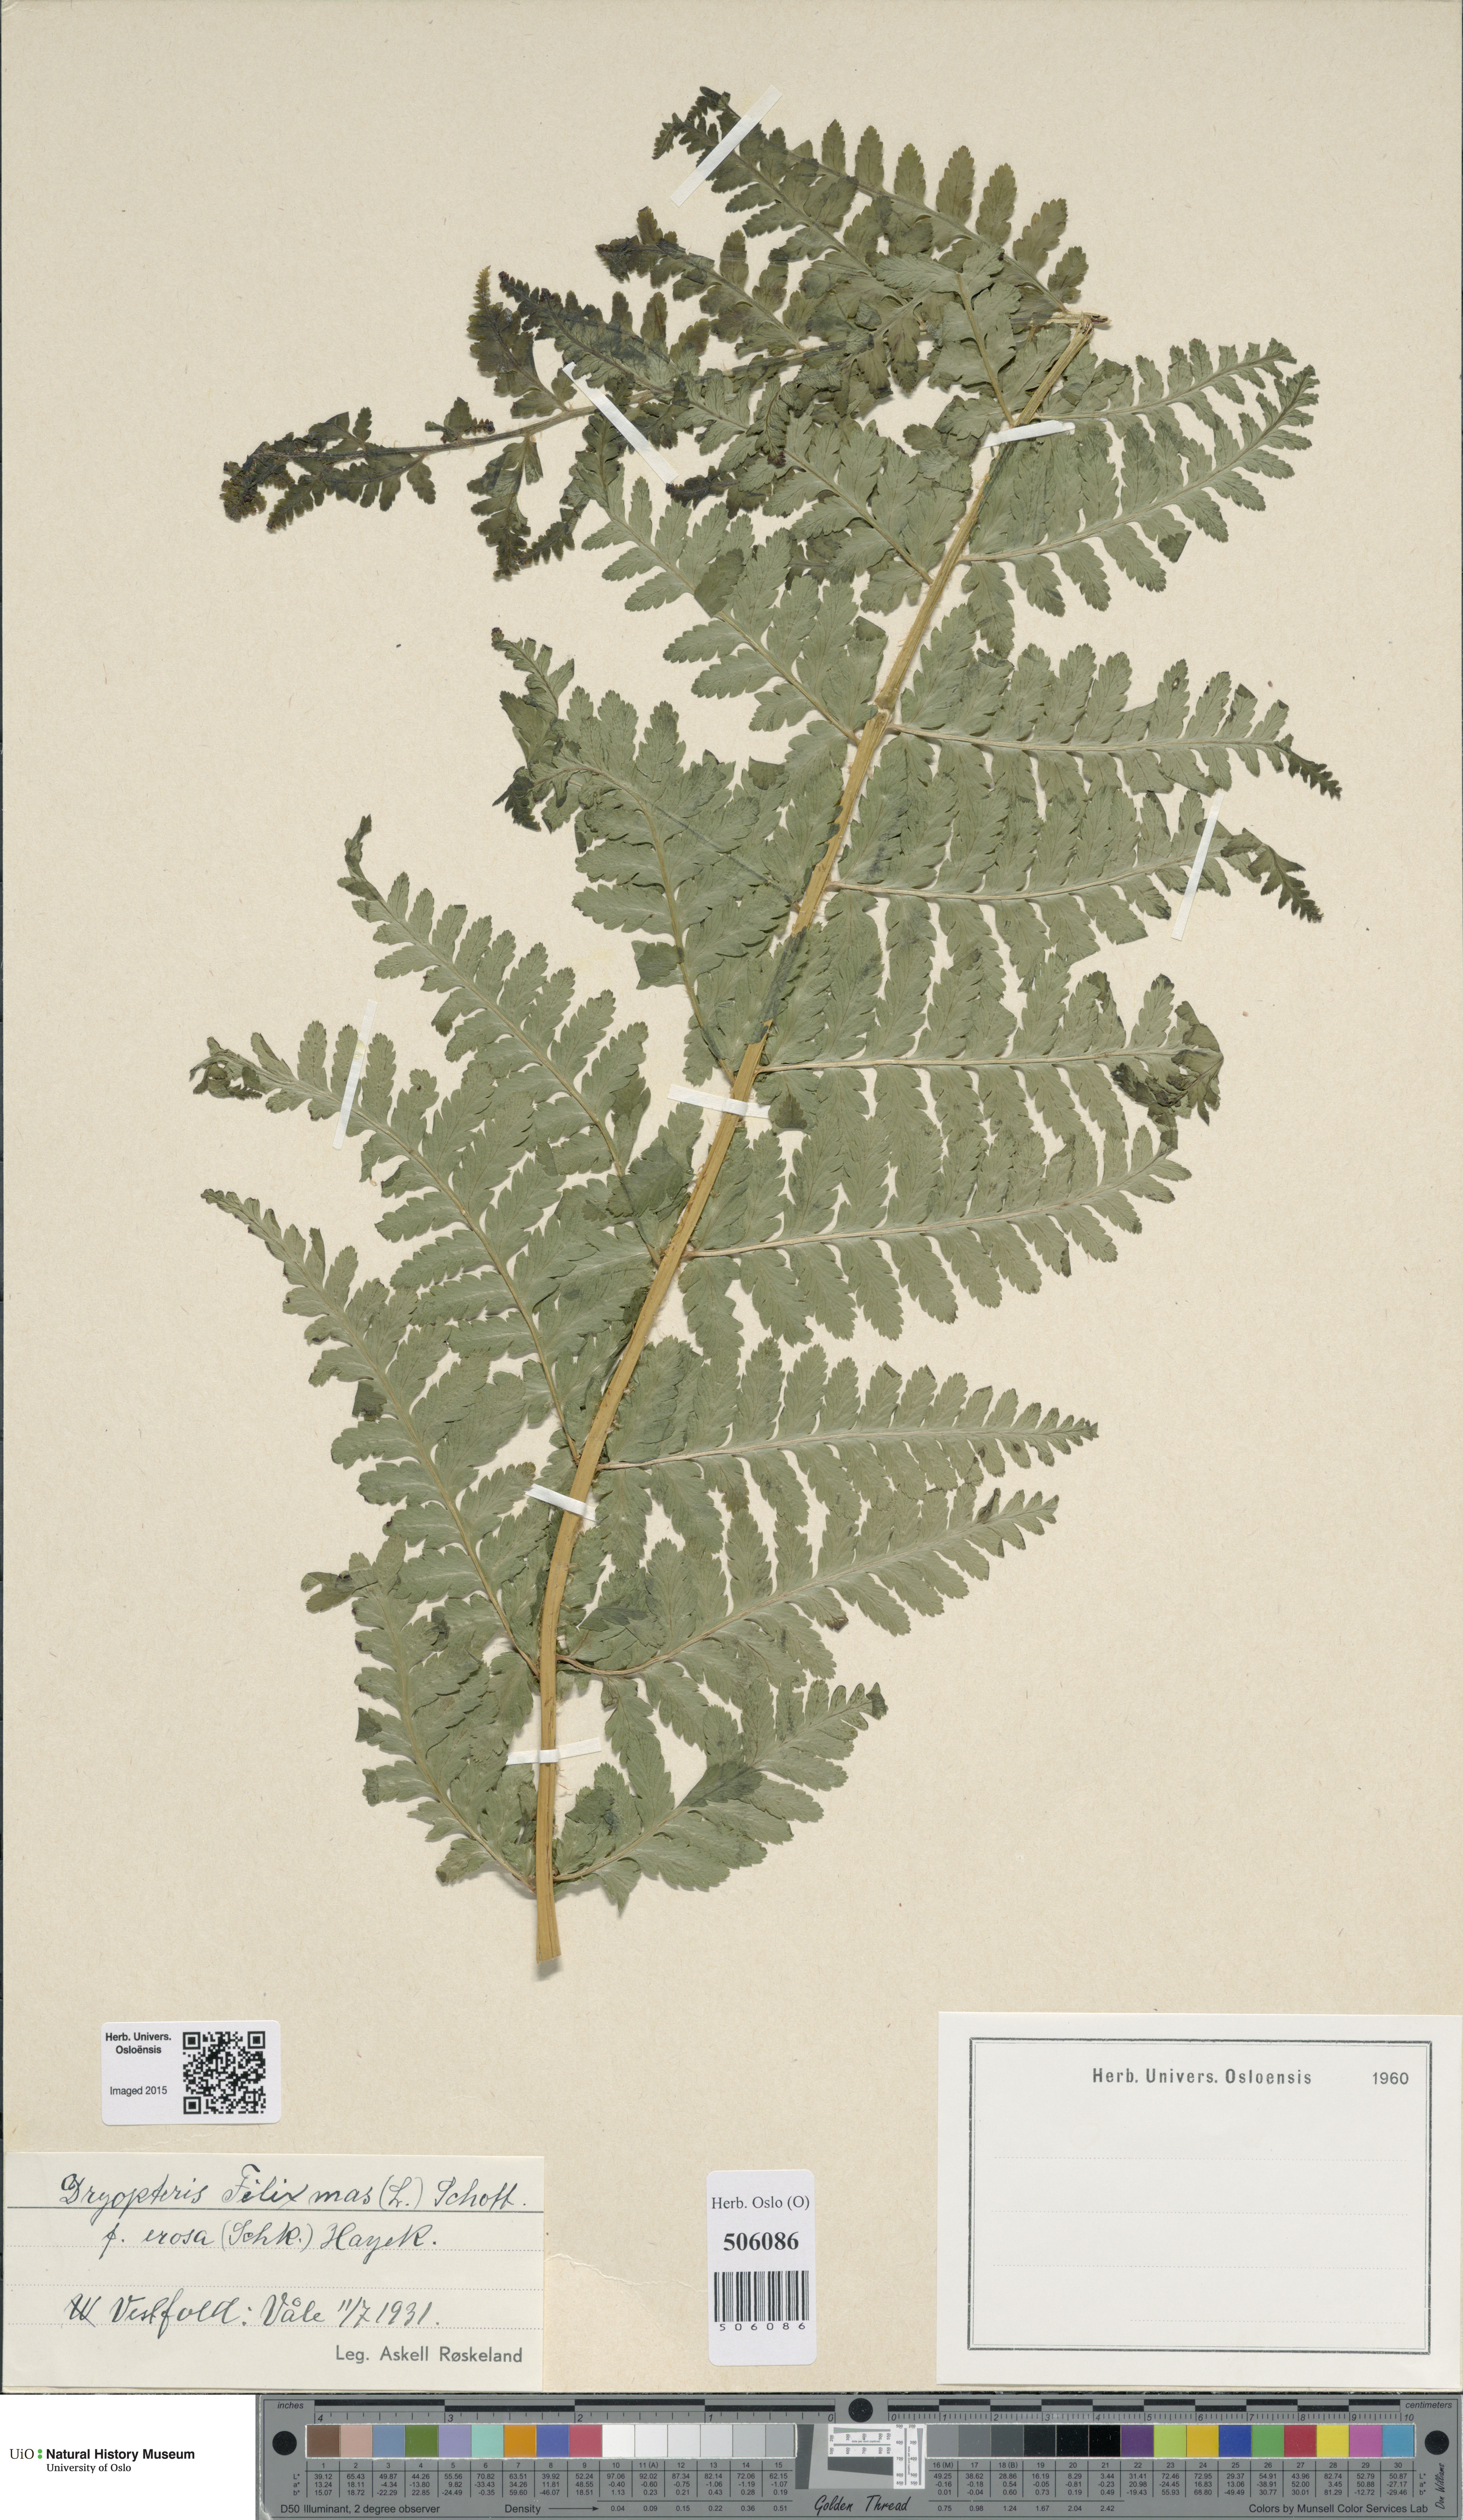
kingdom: Plantae
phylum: Tracheophyta
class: Polypodiopsida
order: Polypodiales
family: Dryopteridaceae
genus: Dryopteris
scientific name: Dryopteris filix-mas
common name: Male fern
